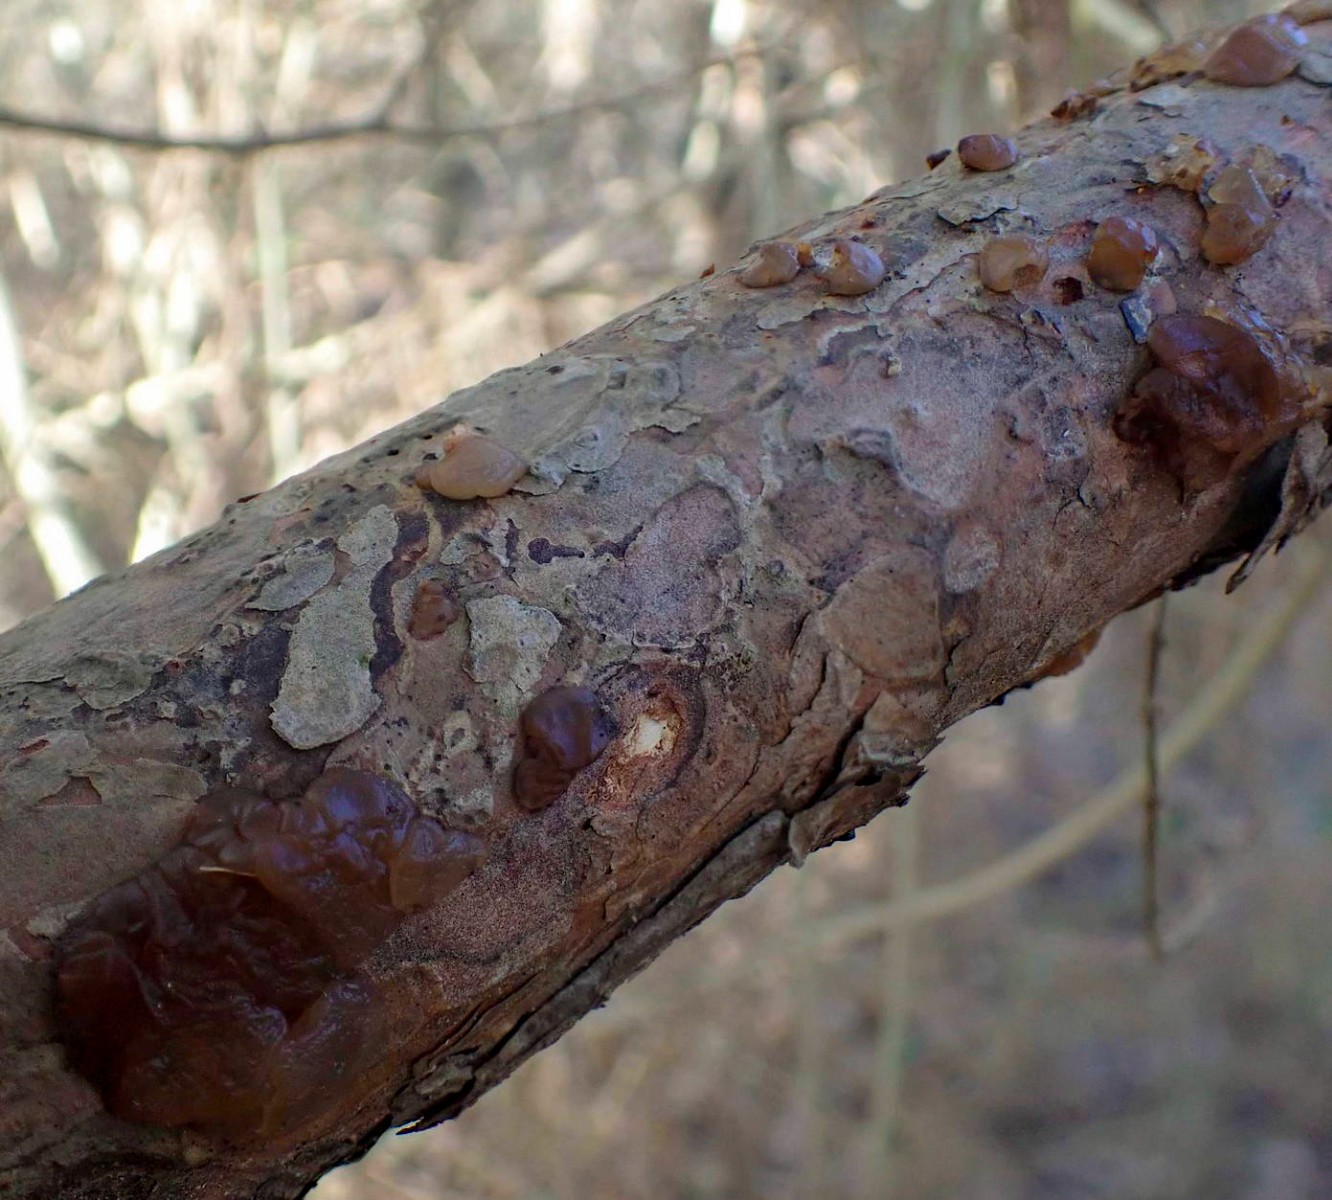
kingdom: Fungi
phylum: Basidiomycota
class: Agaricomycetes
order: Auriculariales
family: Auriculariaceae
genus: Exidia
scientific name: Exidia saccharina
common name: kandis-bævretop
